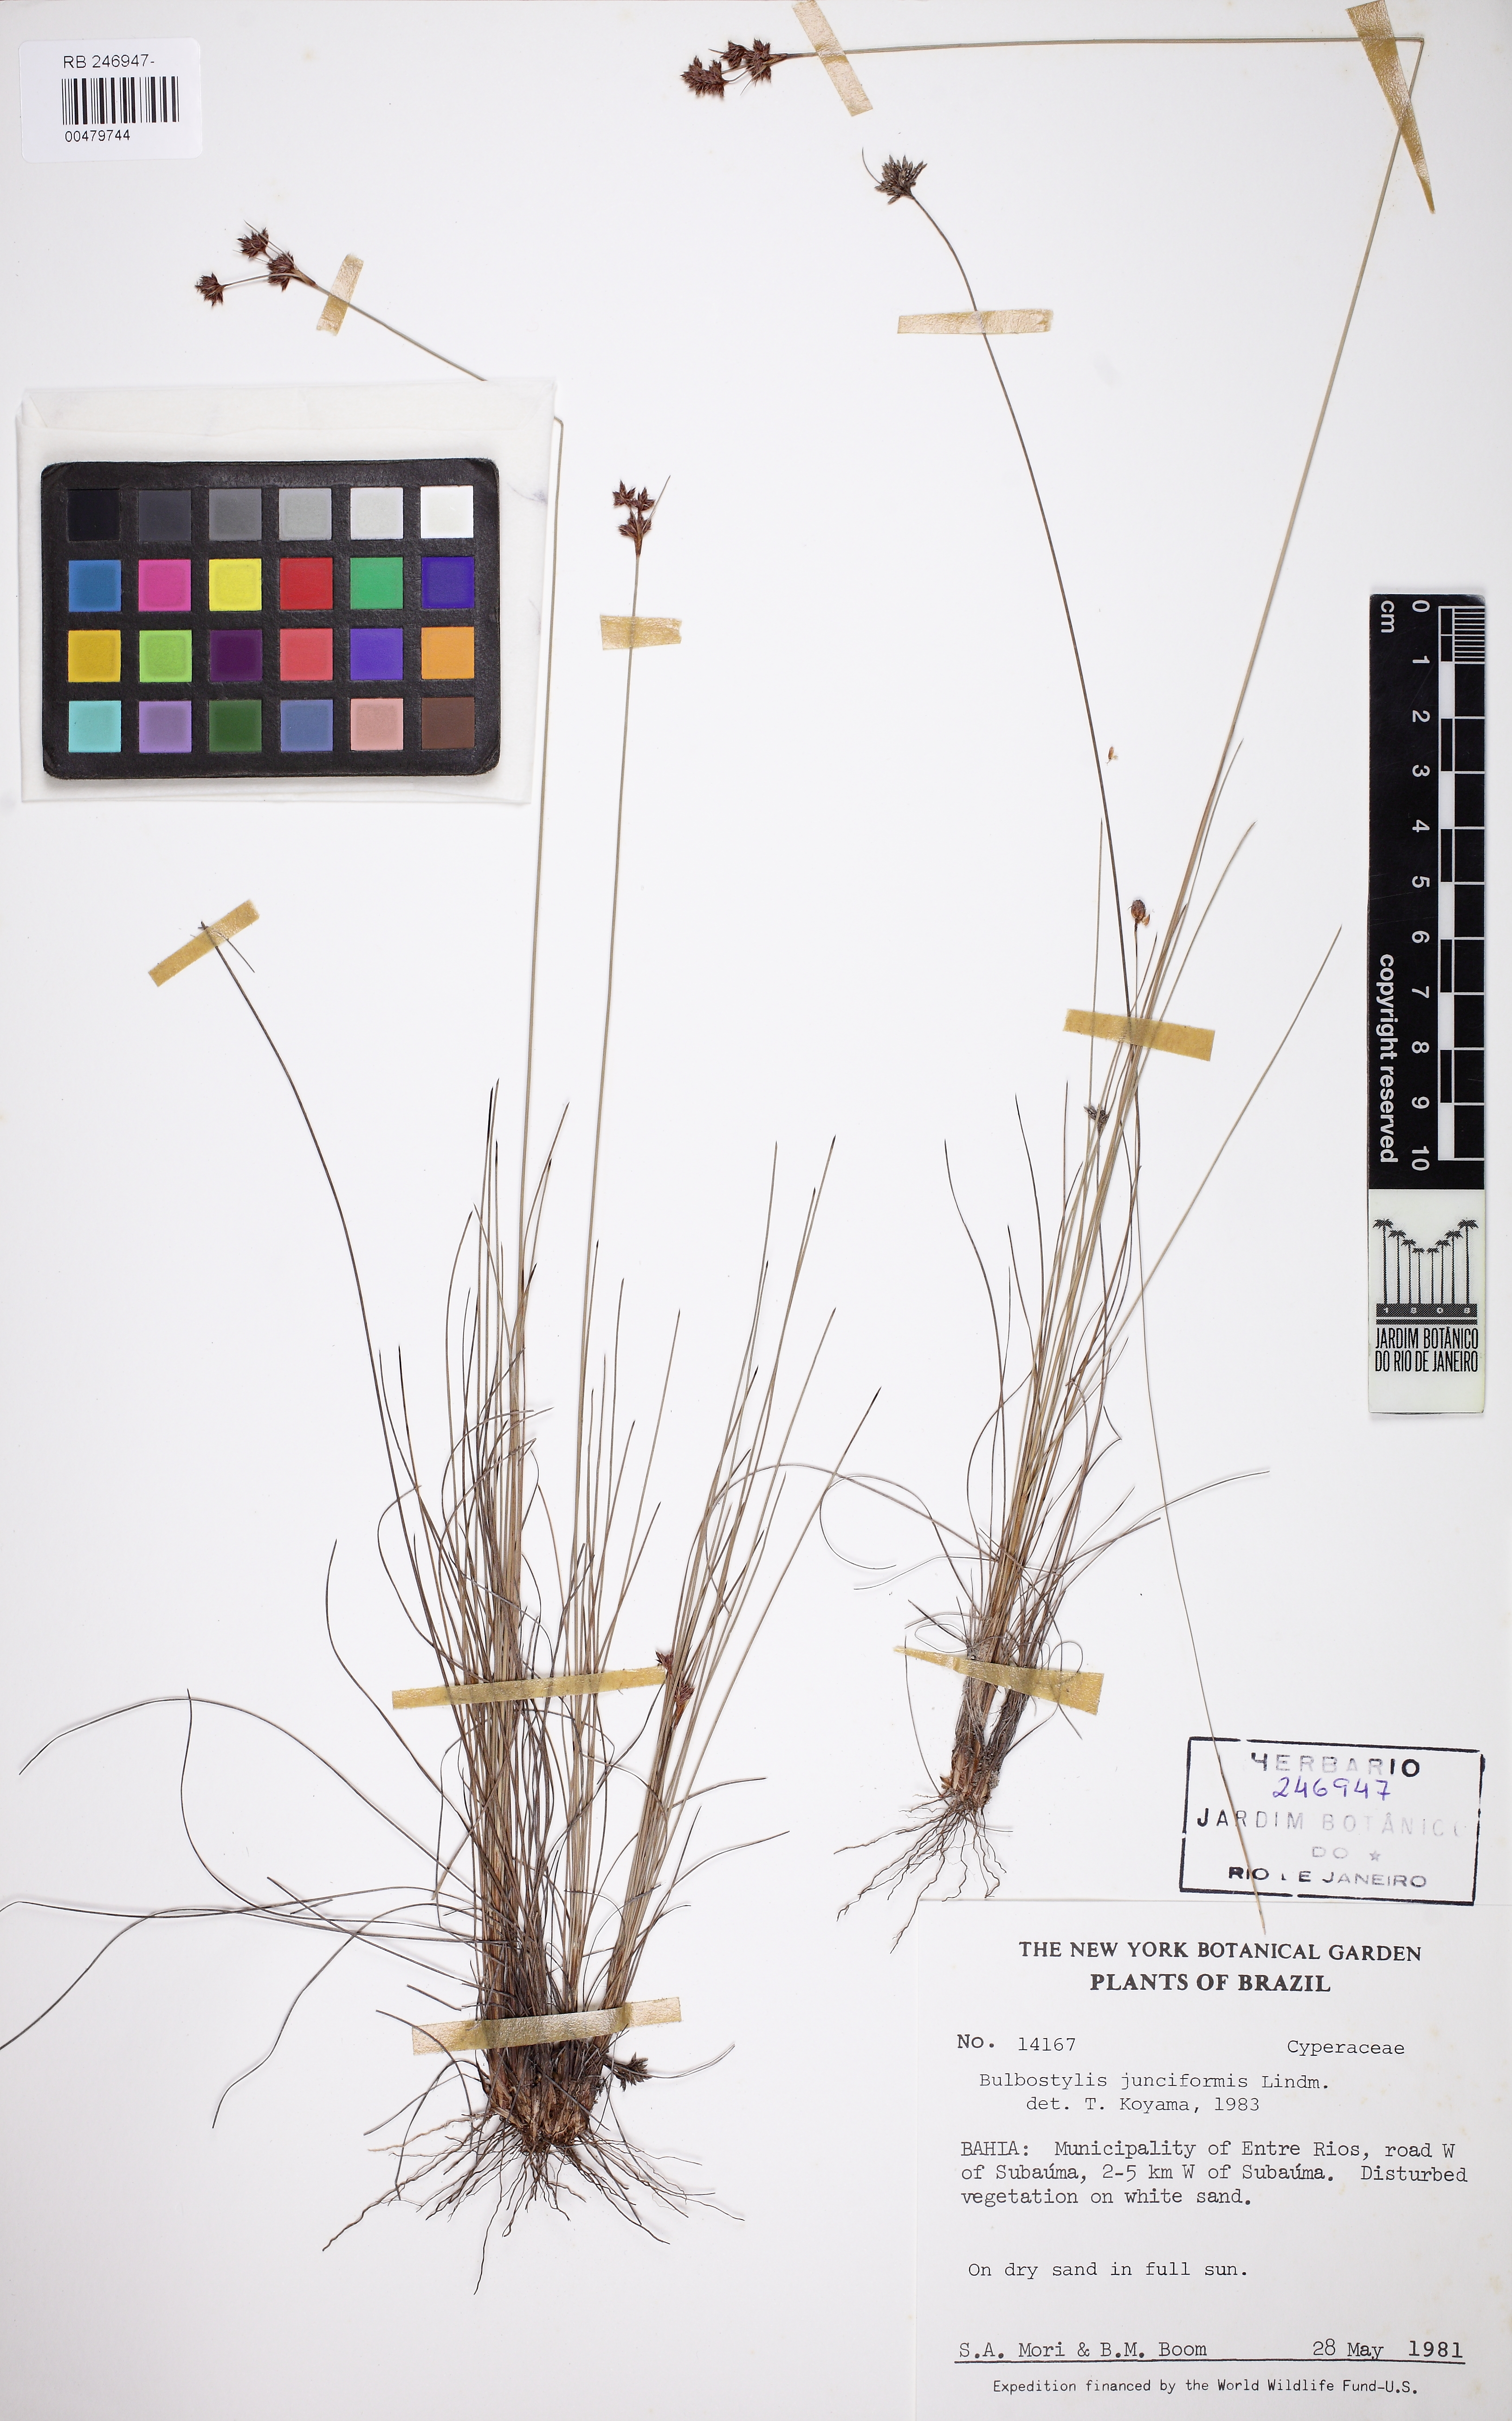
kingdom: Plantae
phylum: Tracheophyta
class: Liliopsida
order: Poales
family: Cyperaceae
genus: Bulbostylis
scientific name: Bulbostylis junciformis
